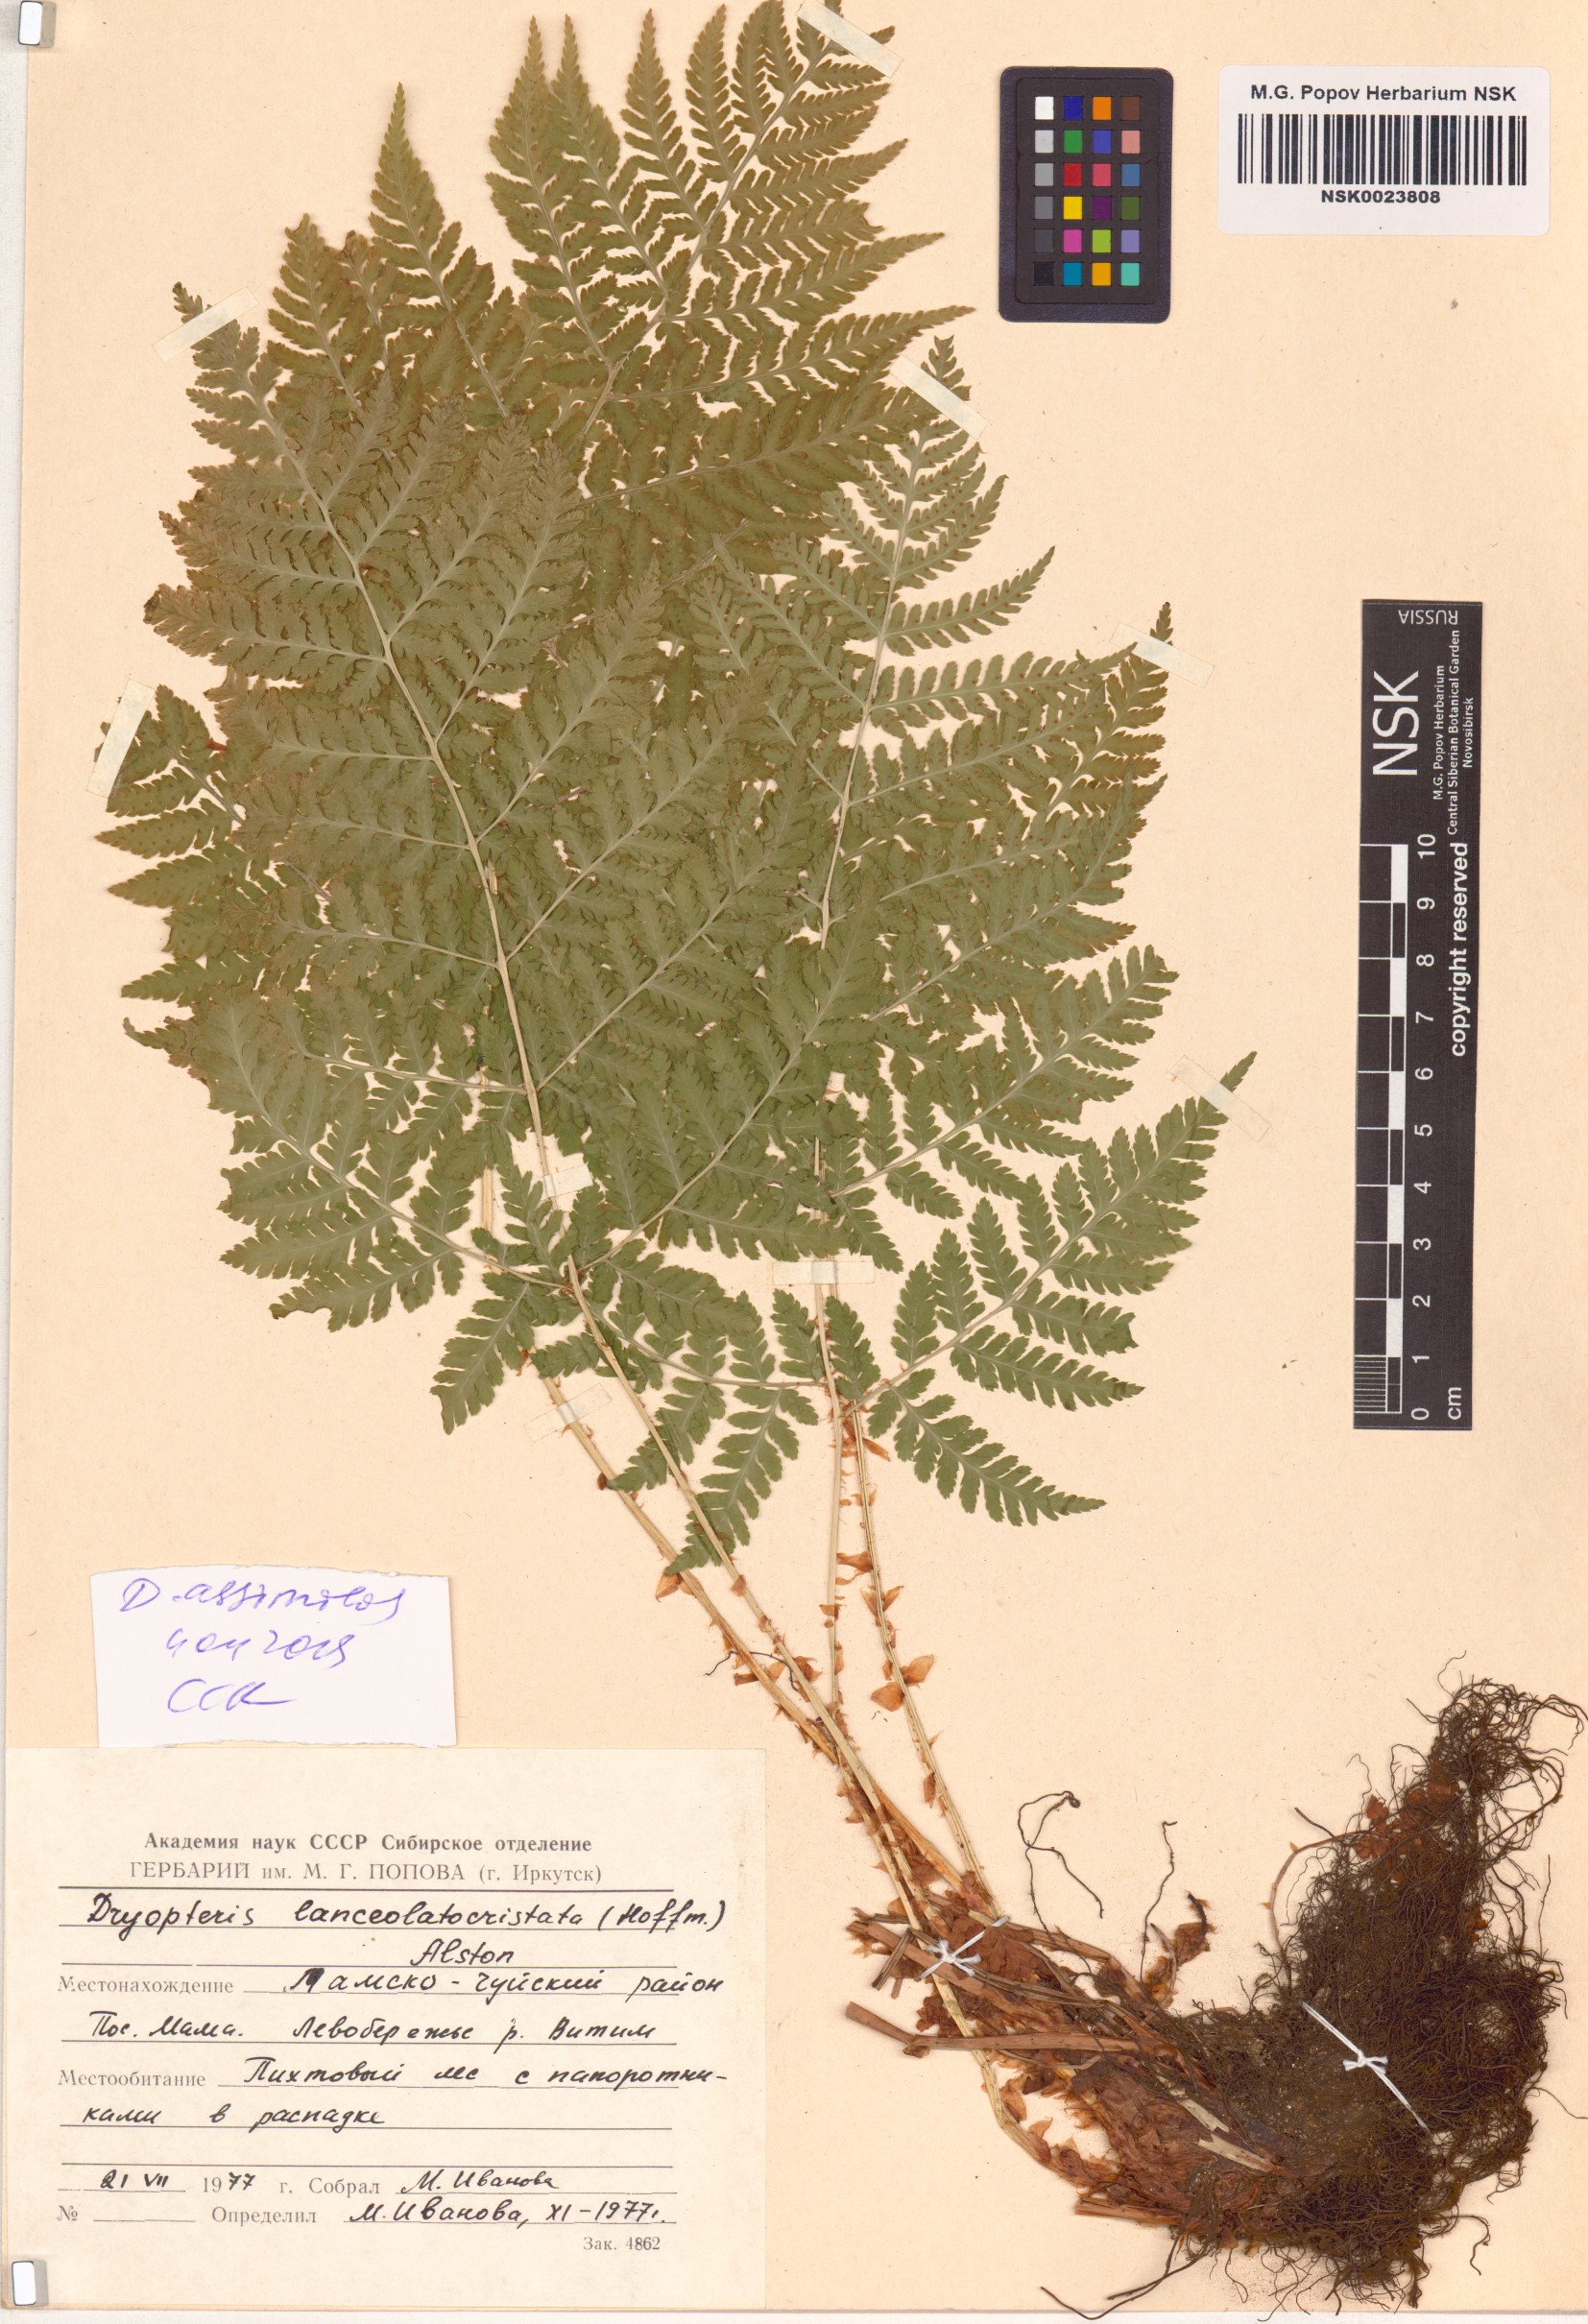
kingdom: Plantae
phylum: Tracheophyta
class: Polypodiopsida
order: Polypodiales
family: Dryopteridaceae
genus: Dryopteris
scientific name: Dryopteris expansa
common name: Northern buckler fern
